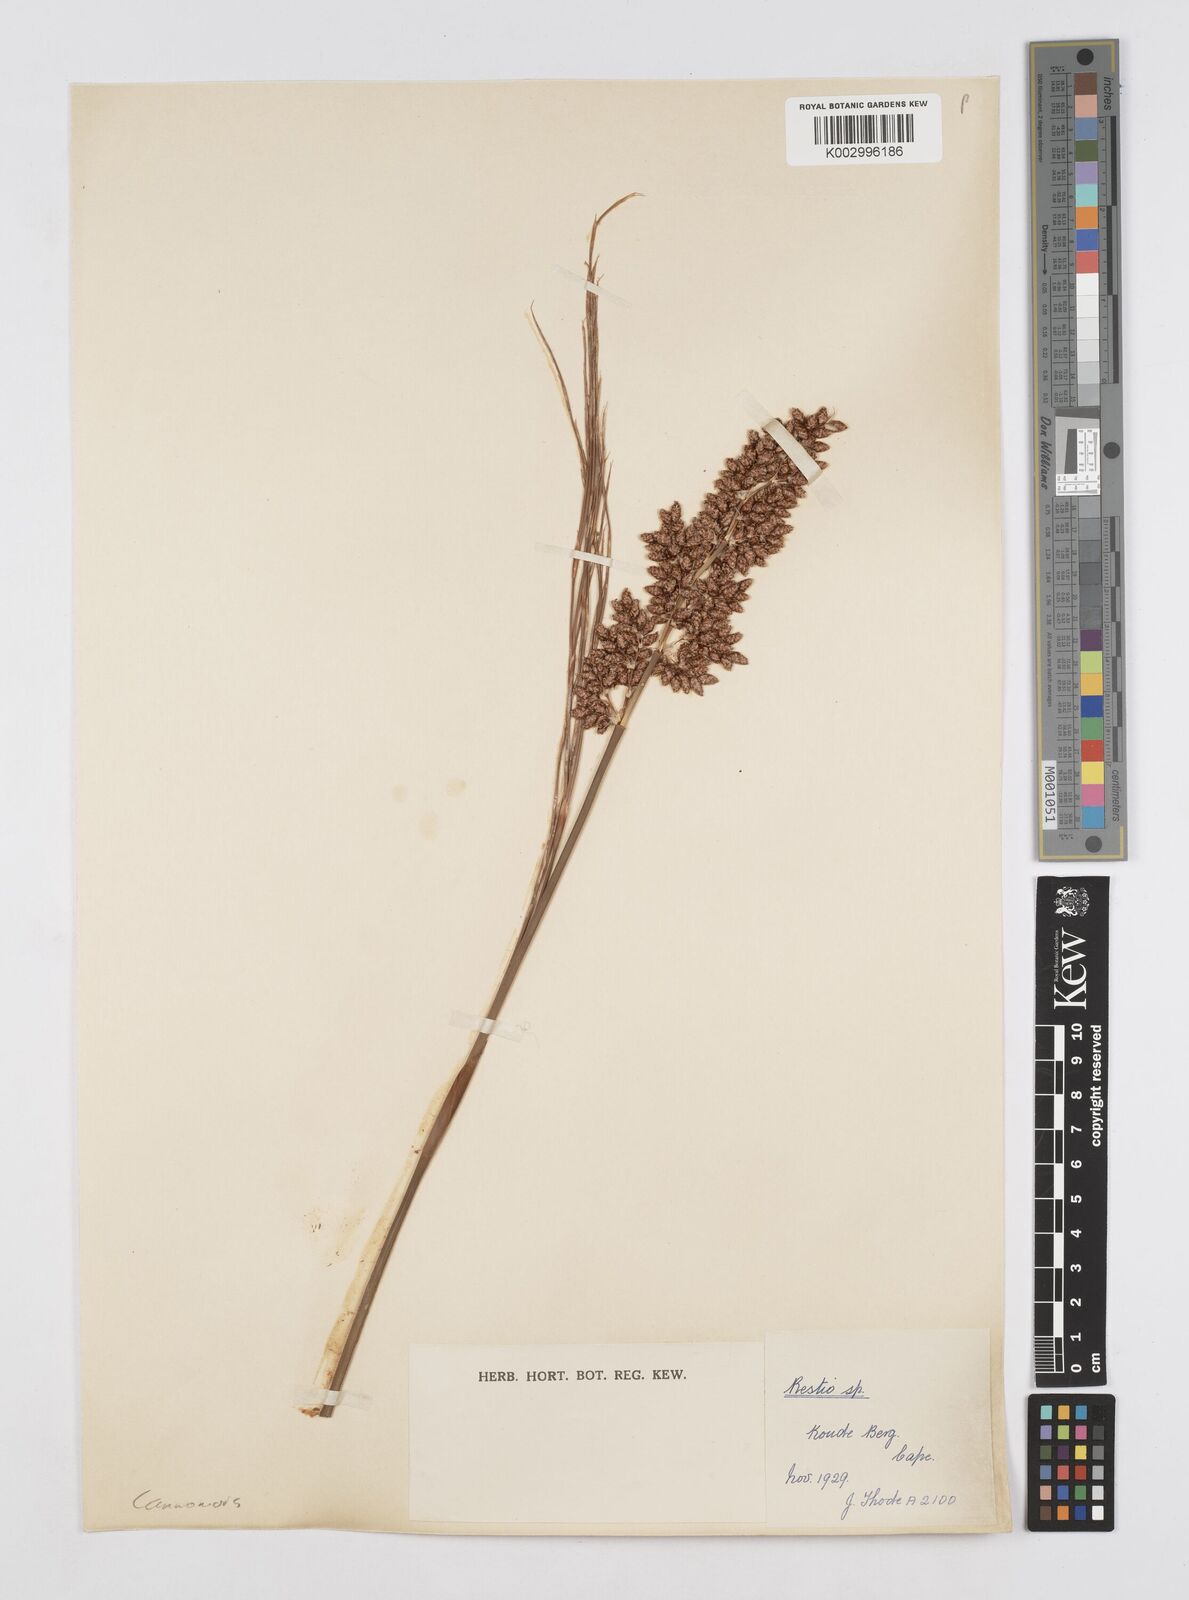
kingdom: Plantae
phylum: Tracheophyta
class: Liliopsida
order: Poales
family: Restionaceae
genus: Cannomois
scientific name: Cannomois virgata
